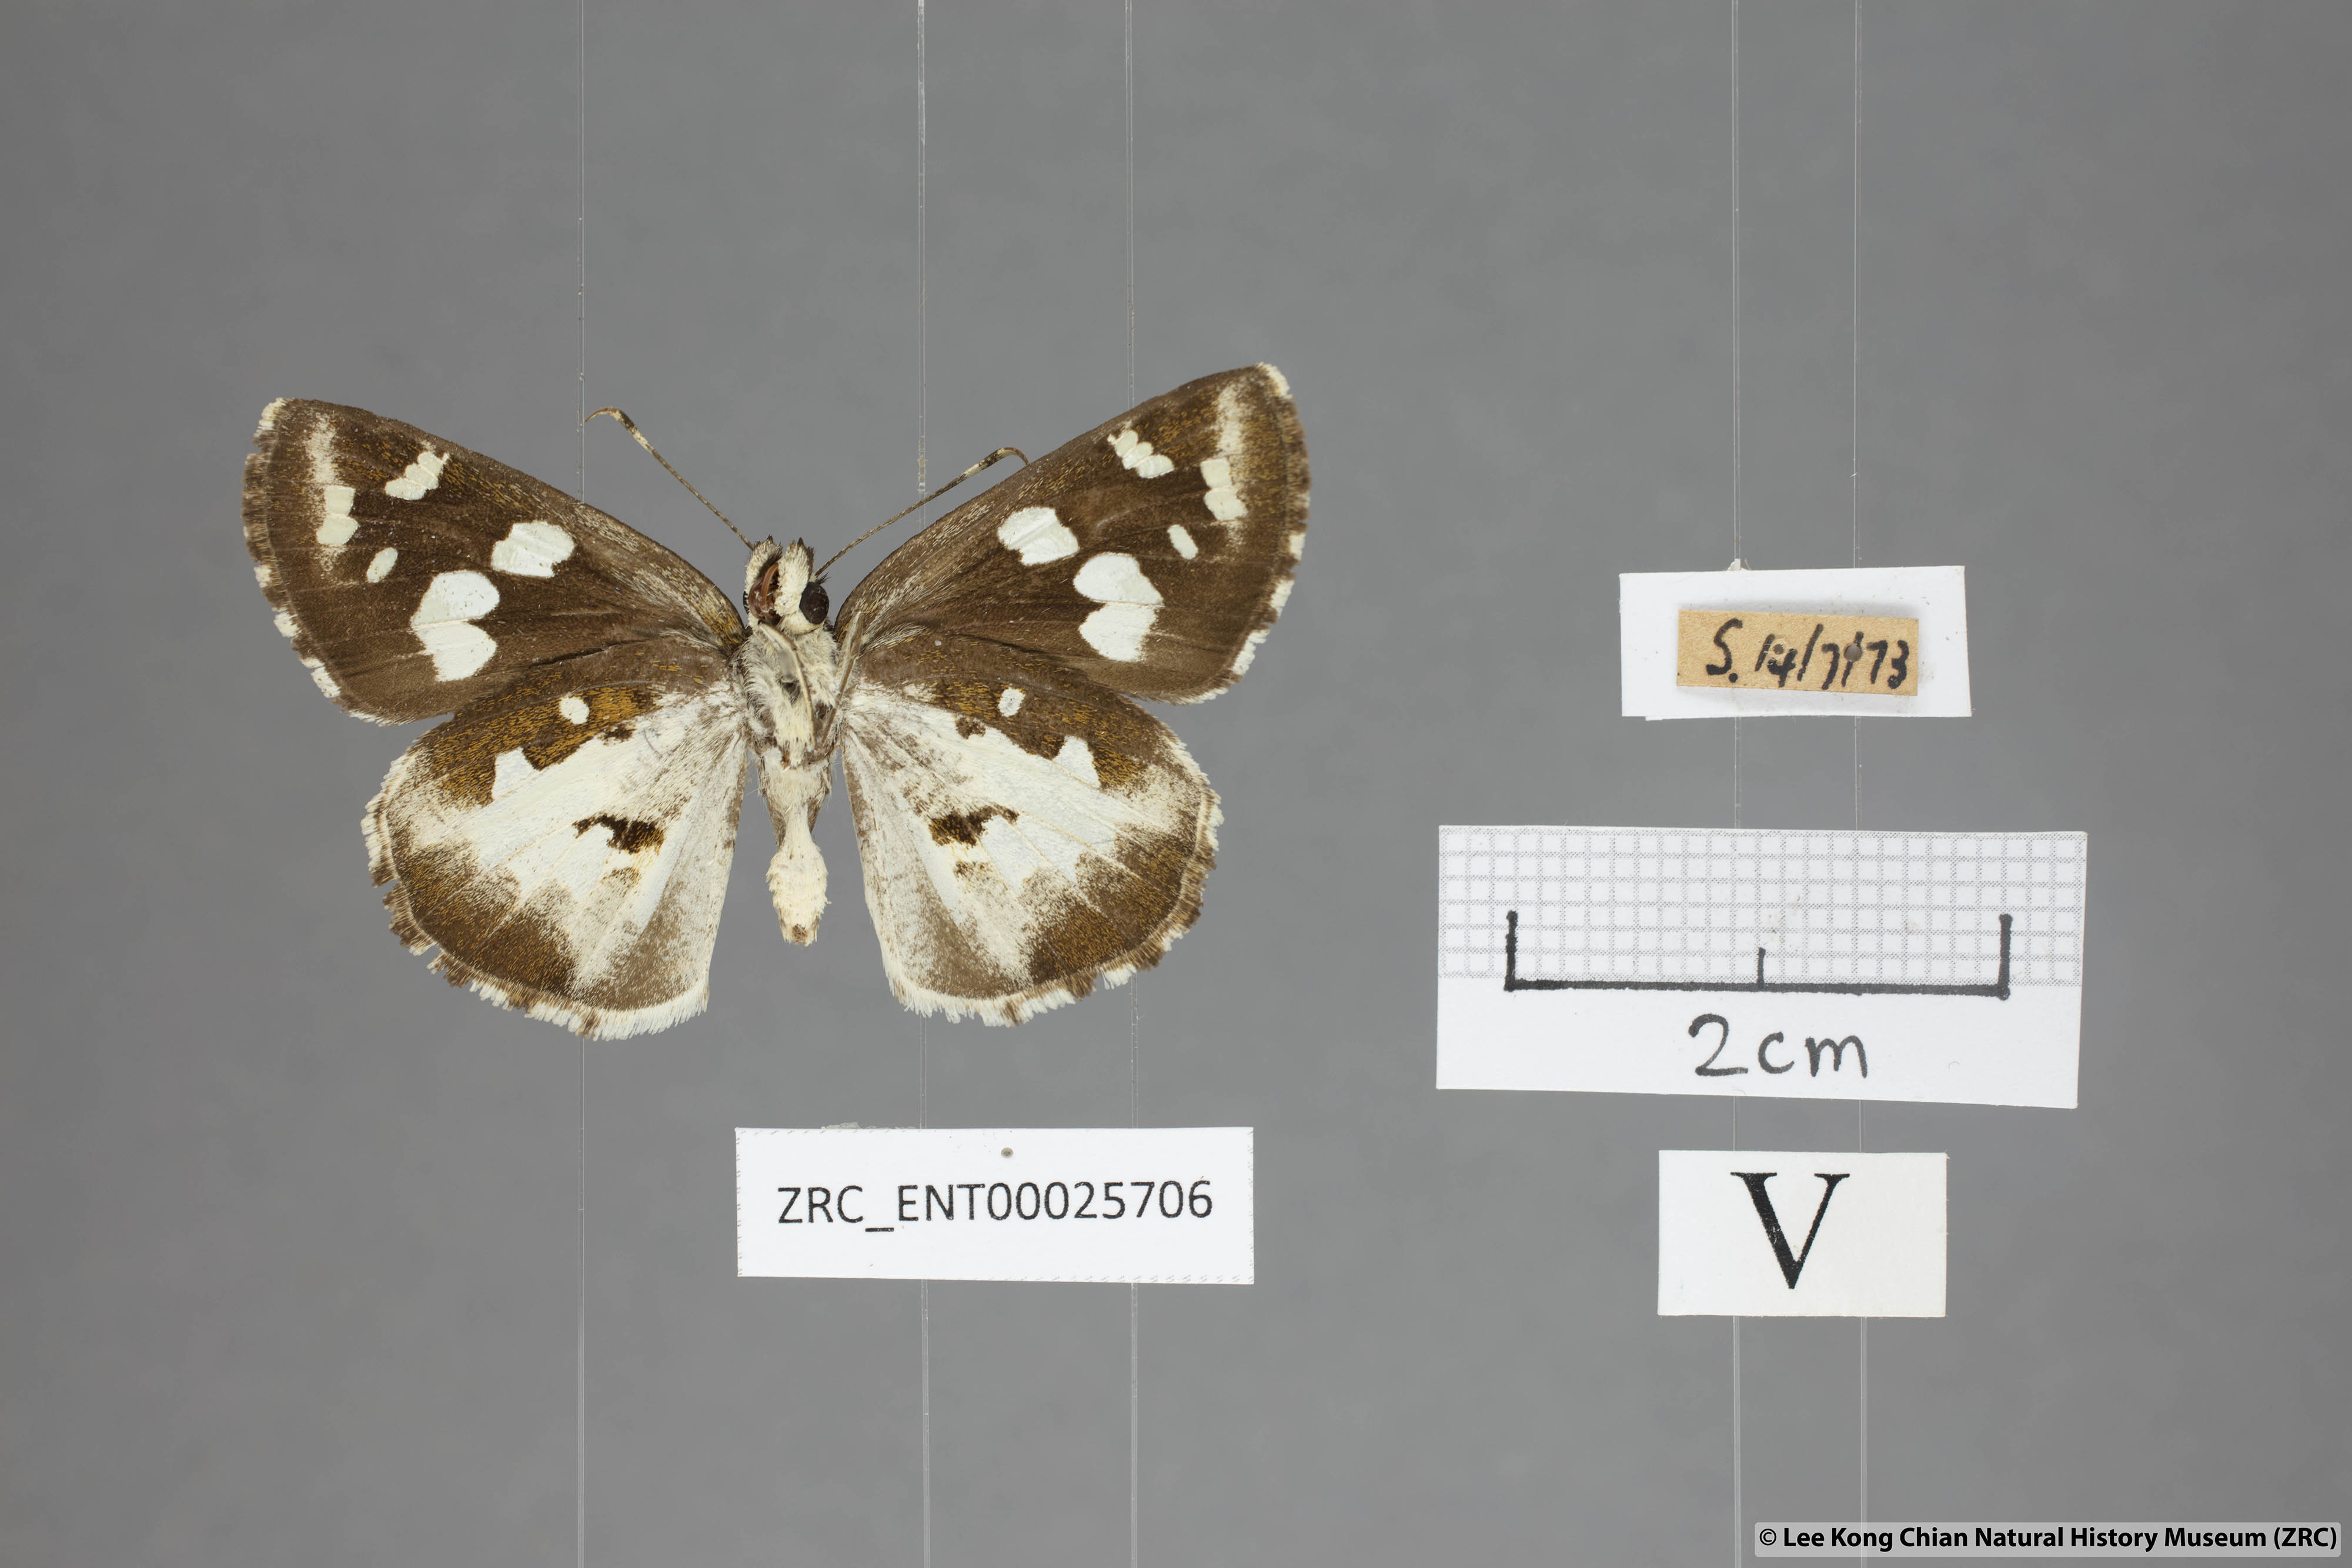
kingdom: Animalia
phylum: Arthropoda
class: Insecta
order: Lepidoptera
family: Hesperiidae
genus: Udaspes
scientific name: Udaspes folus
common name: Grass demon
